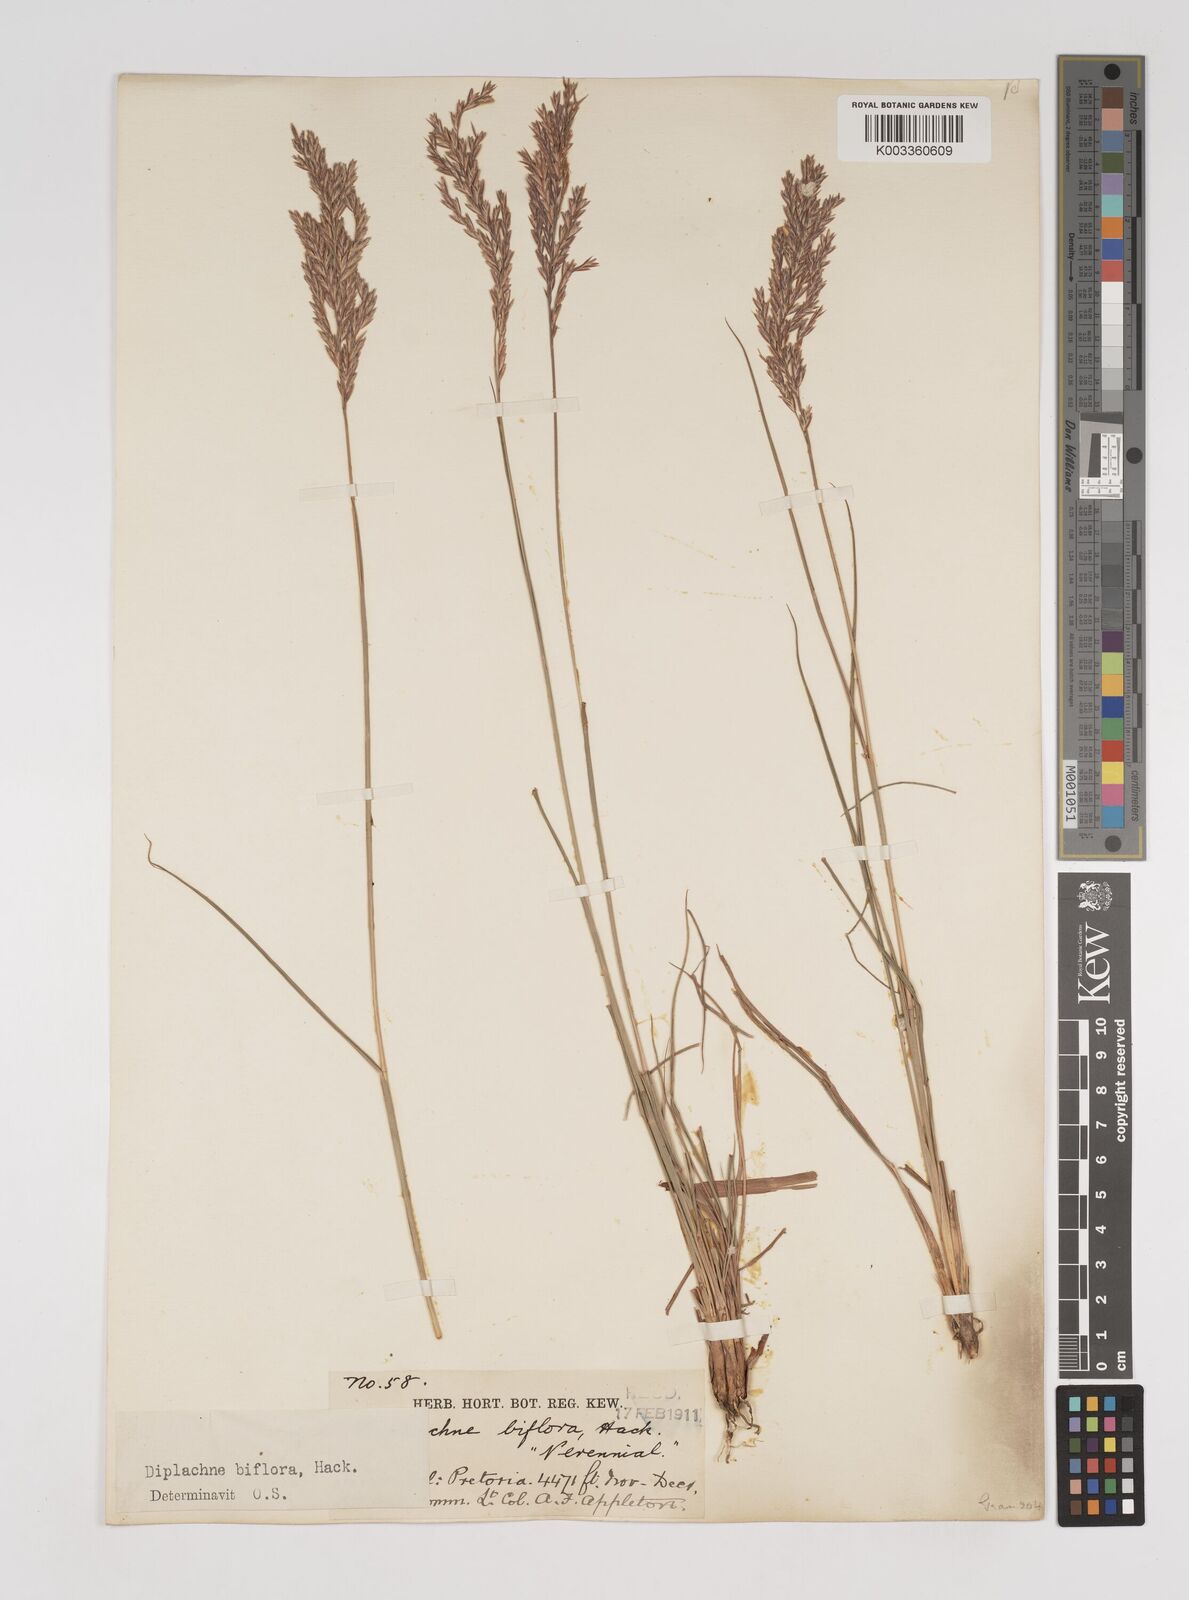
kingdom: Plantae
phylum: Tracheophyta
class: Liliopsida
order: Poales
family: Poaceae
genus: Bewsia
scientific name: Bewsia biflora
